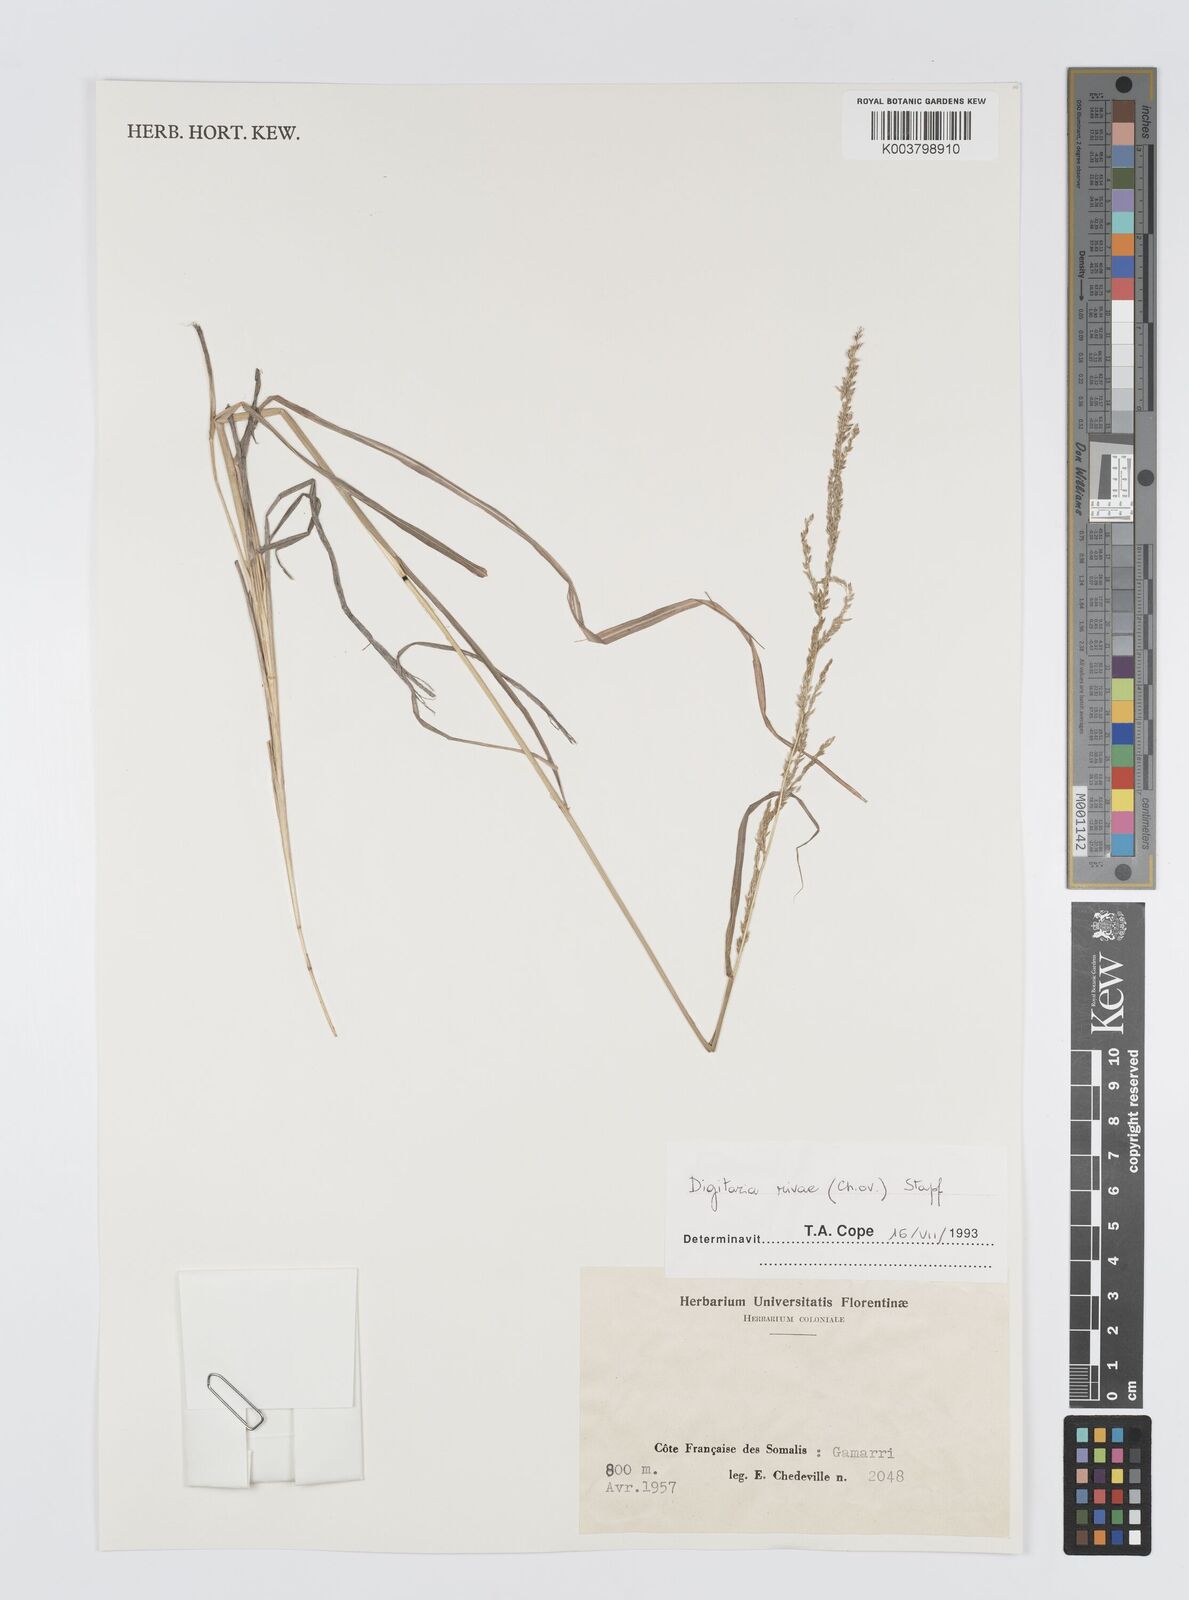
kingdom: Plantae
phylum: Tracheophyta
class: Liliopsida
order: Poales
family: Poaceae
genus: Digitaria
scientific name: Digitaria rivae
